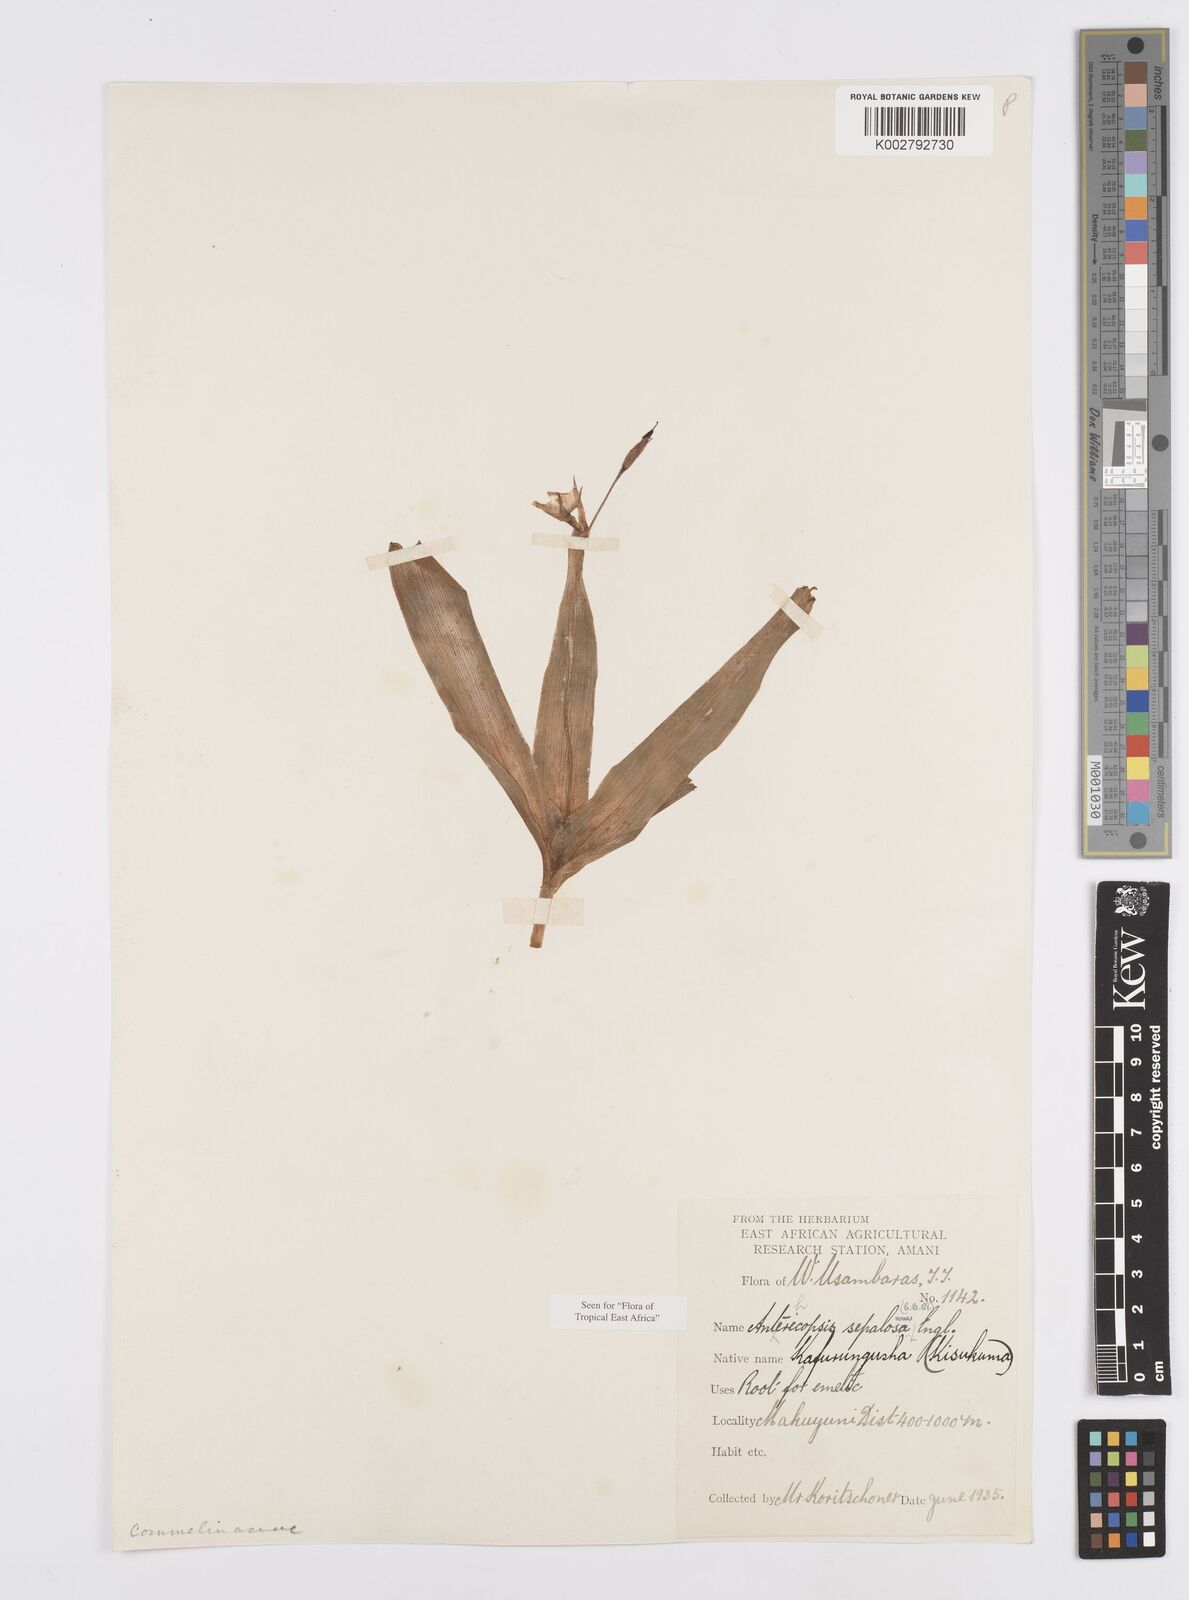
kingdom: Plantae
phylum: Tracheophyta
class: Liliopsida
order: Commelinales
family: Commelinaceae
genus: Anthericopsis
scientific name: Anthericopsis sepalosa
